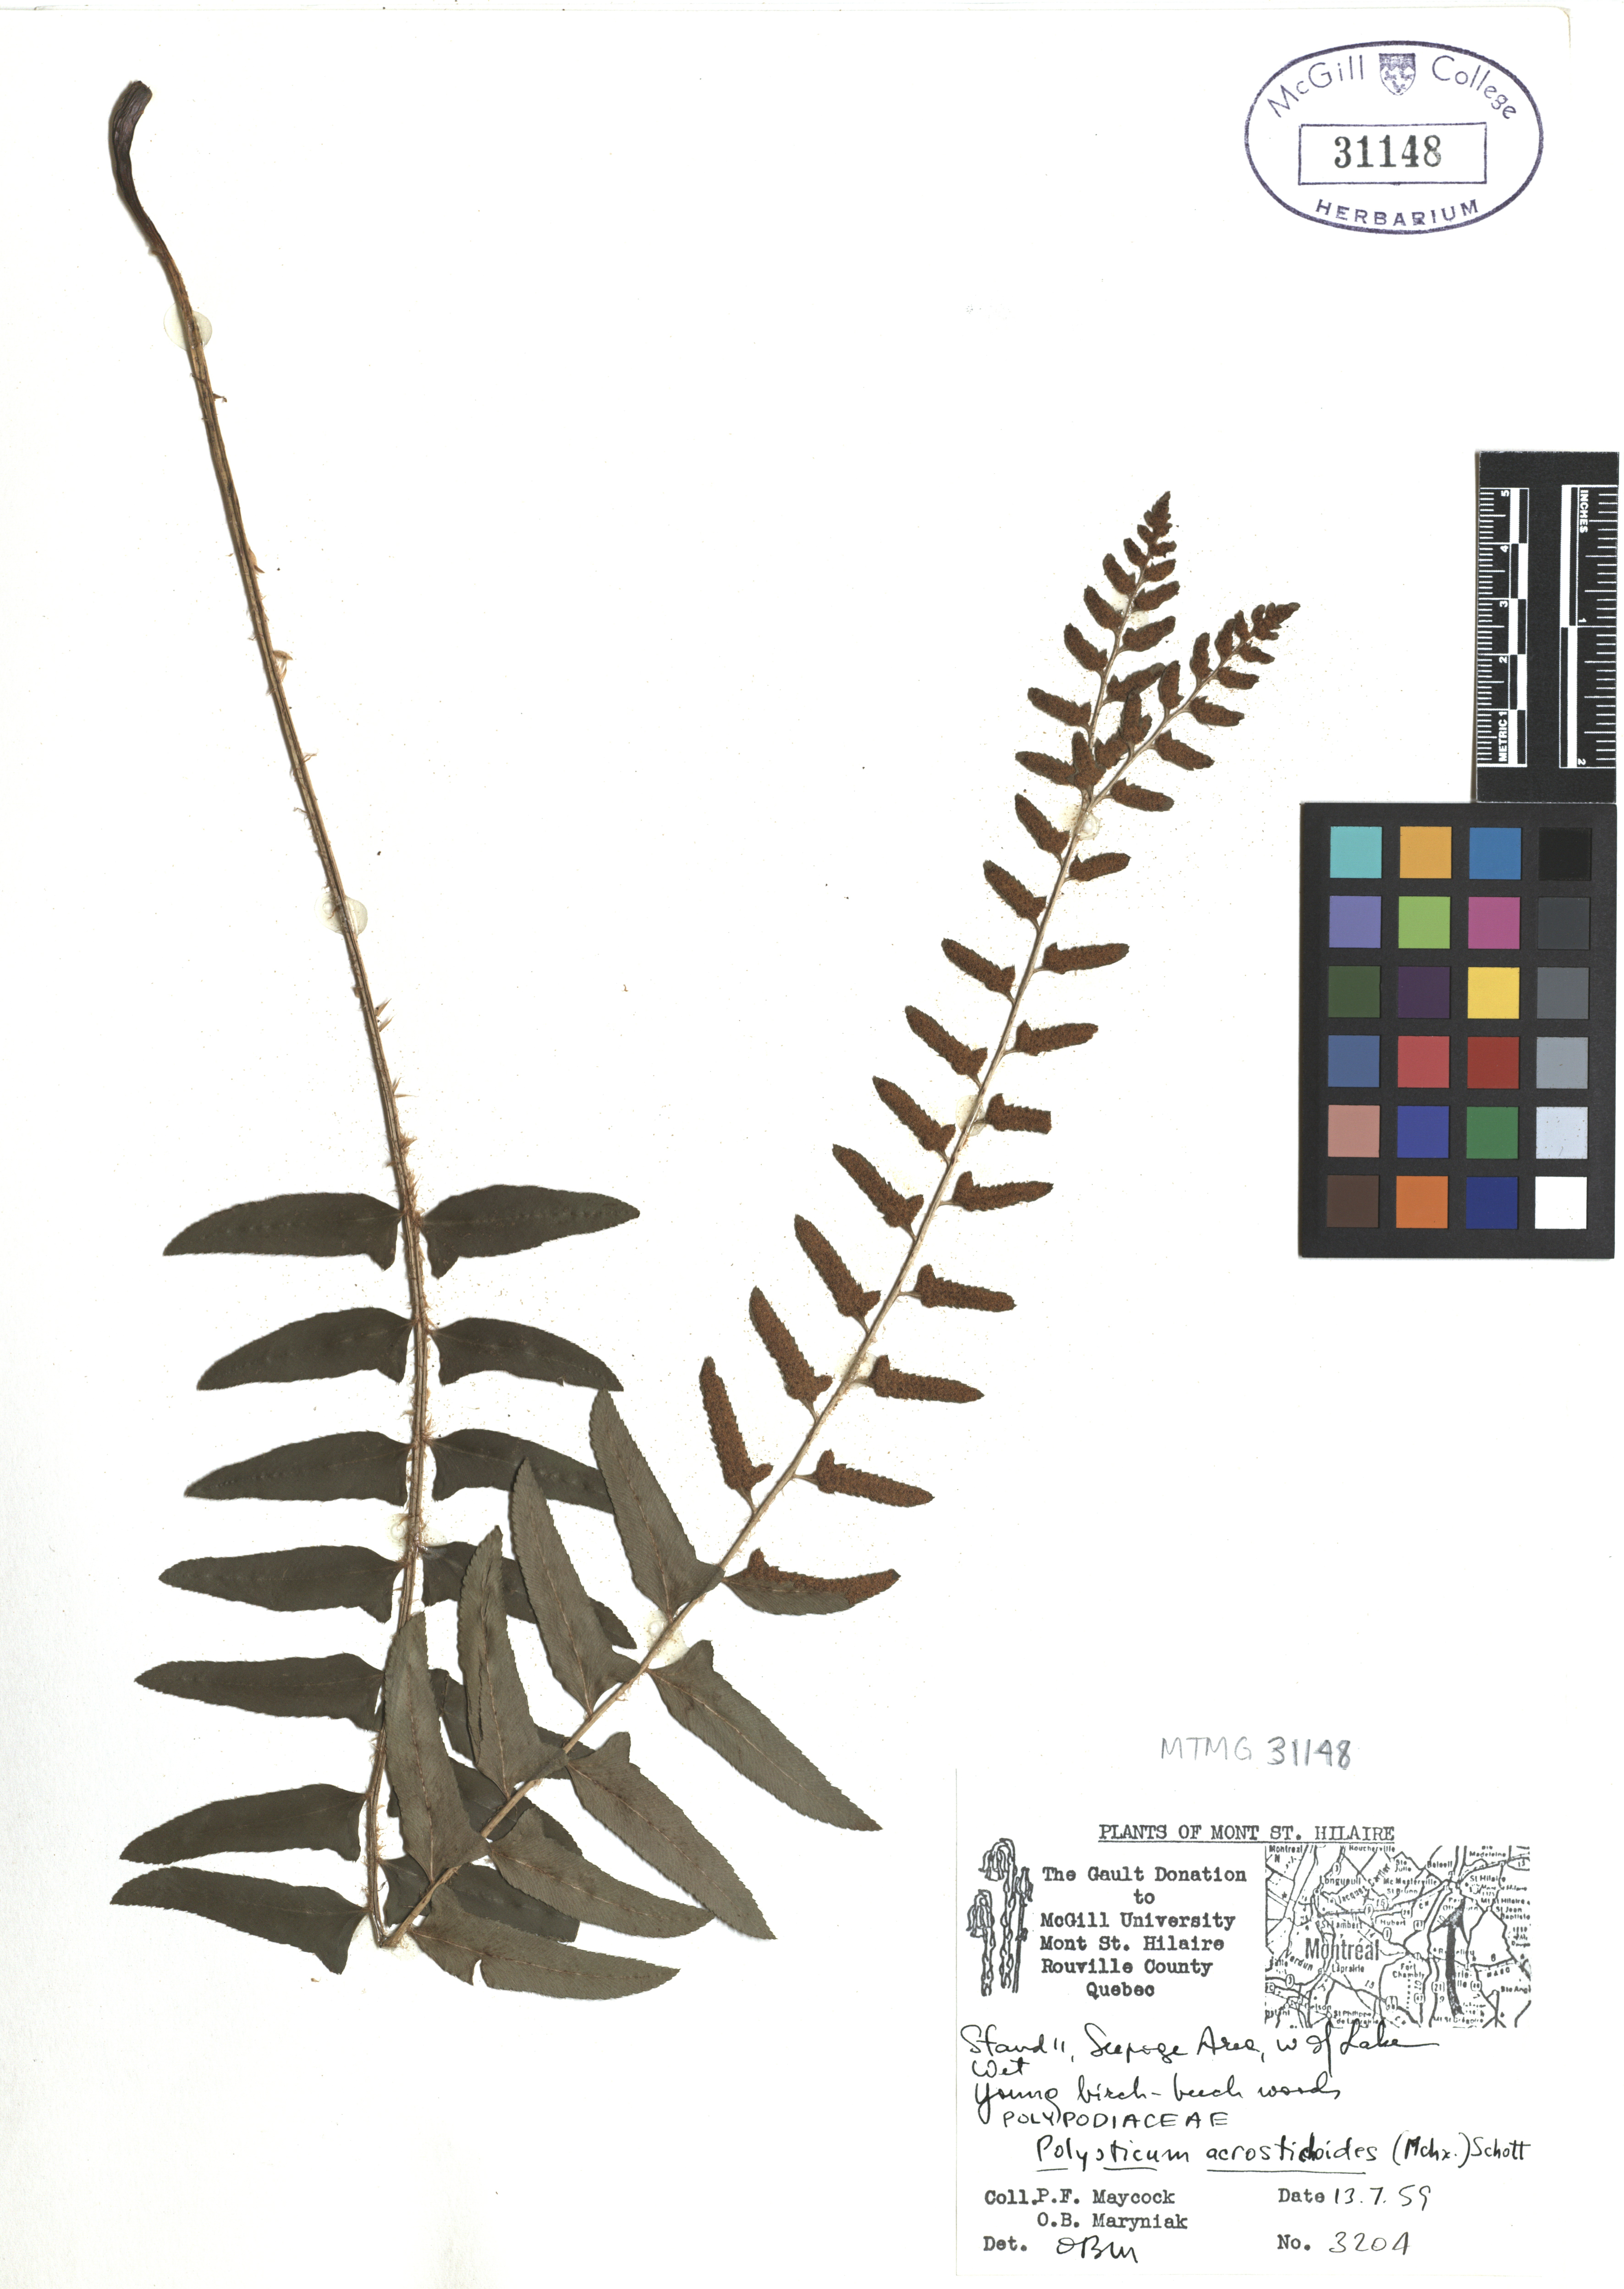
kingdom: Plantae
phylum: Tracheophyta
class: Polypodiopsida
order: Polypodiales
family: Dryopteridaceae
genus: Polystichum
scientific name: Polystichum acrostichoides
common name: Christmas fern
